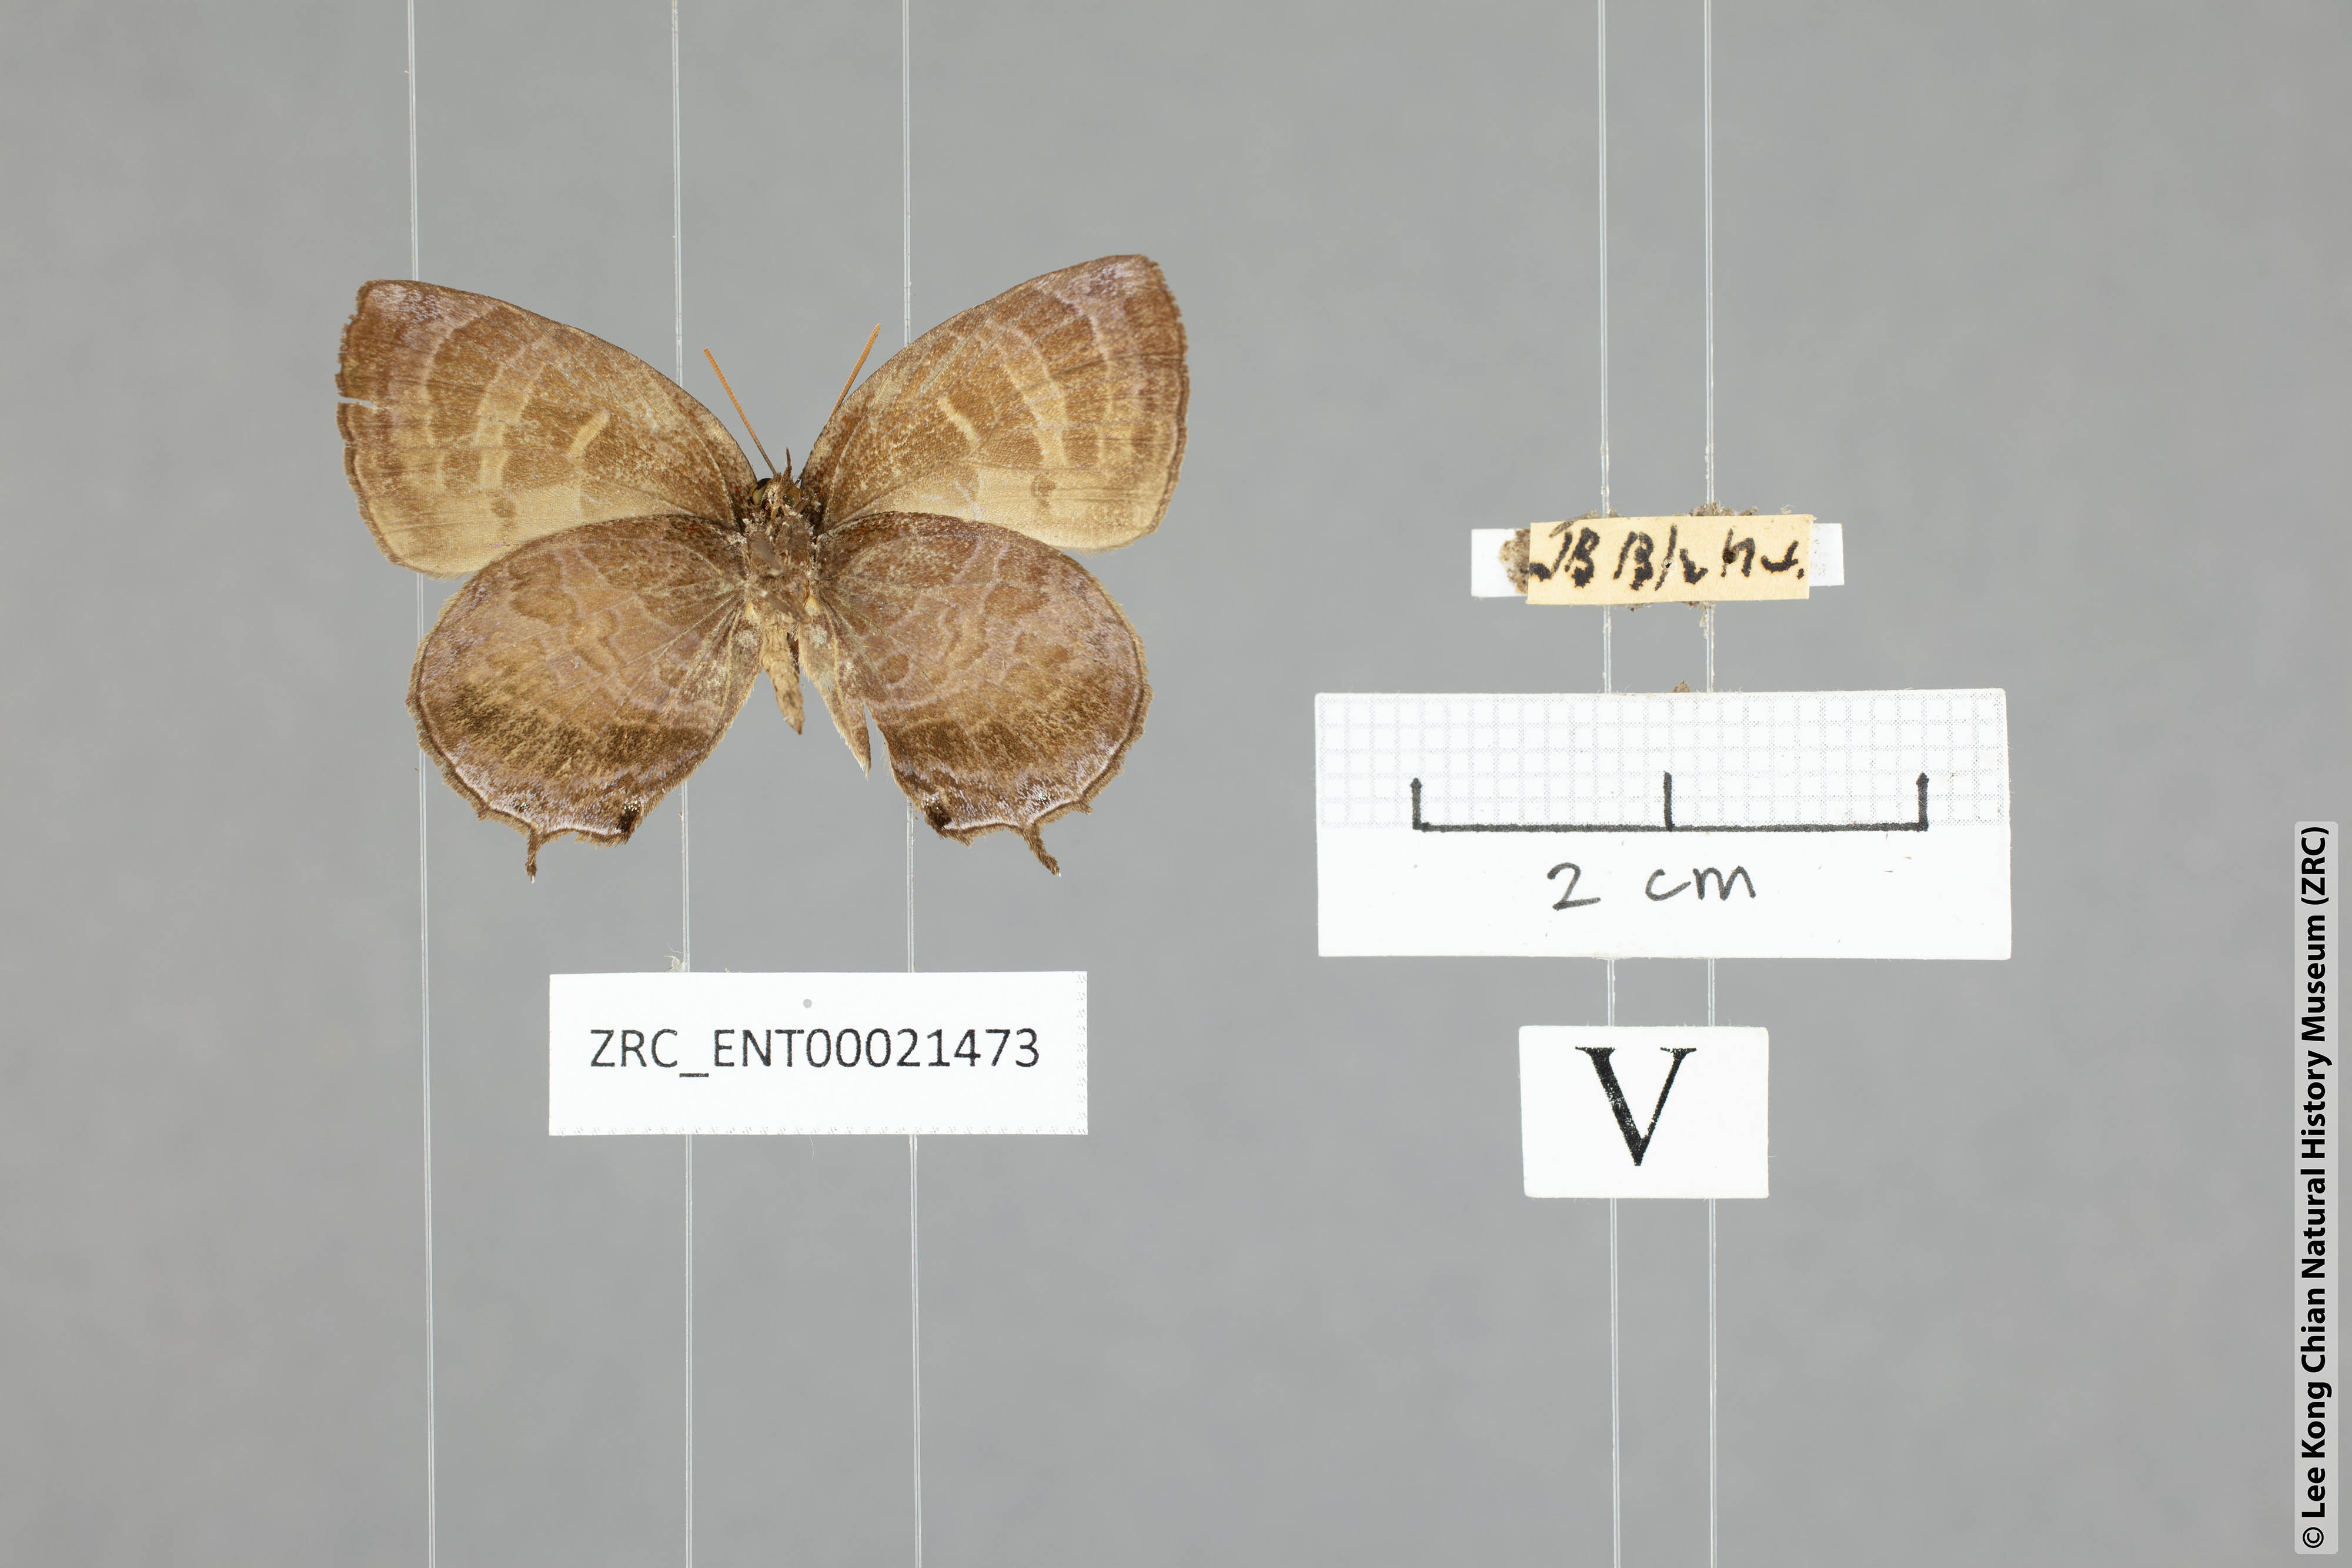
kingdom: Animalia
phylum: Arthropoda
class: Insecta
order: Lepidoptera
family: Lycaenidae
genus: Flos
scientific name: Flos apidanus
